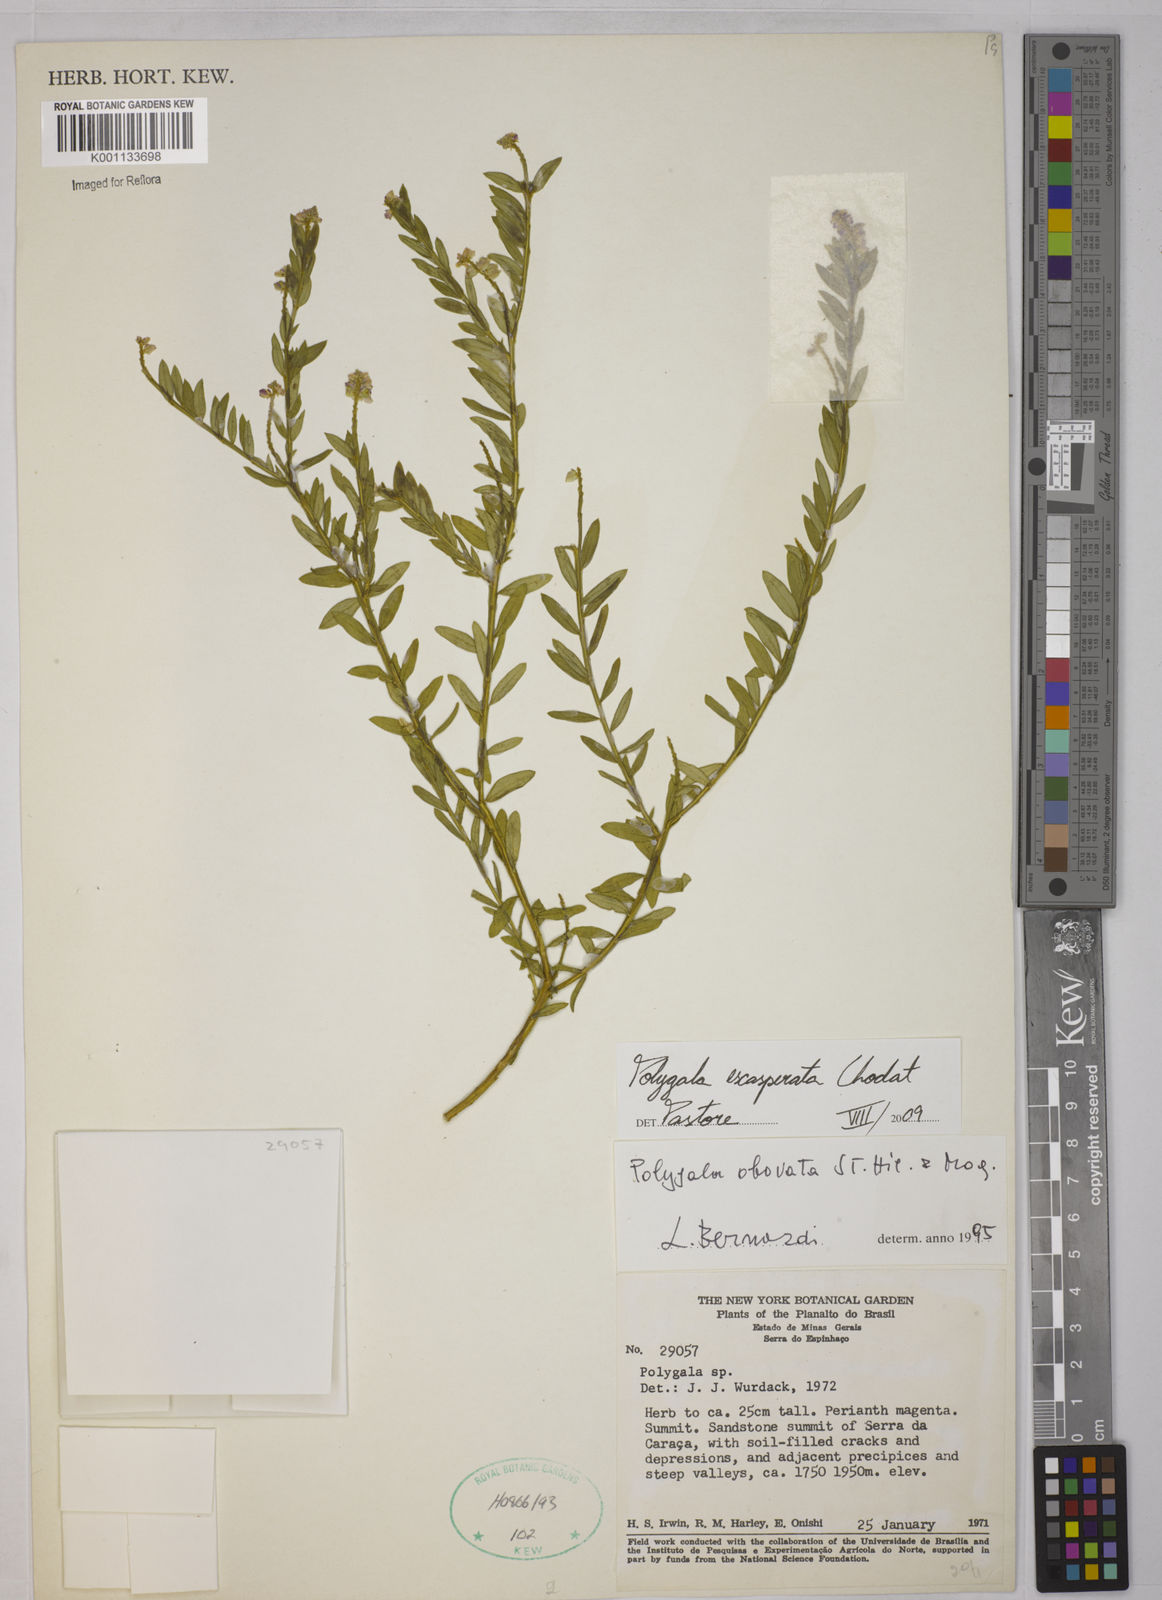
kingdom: Plantae
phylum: Tracheophyta
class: Magnoliopsida
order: Fabales
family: Polygalaceae
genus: Polygala
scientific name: Polygala densifolia
